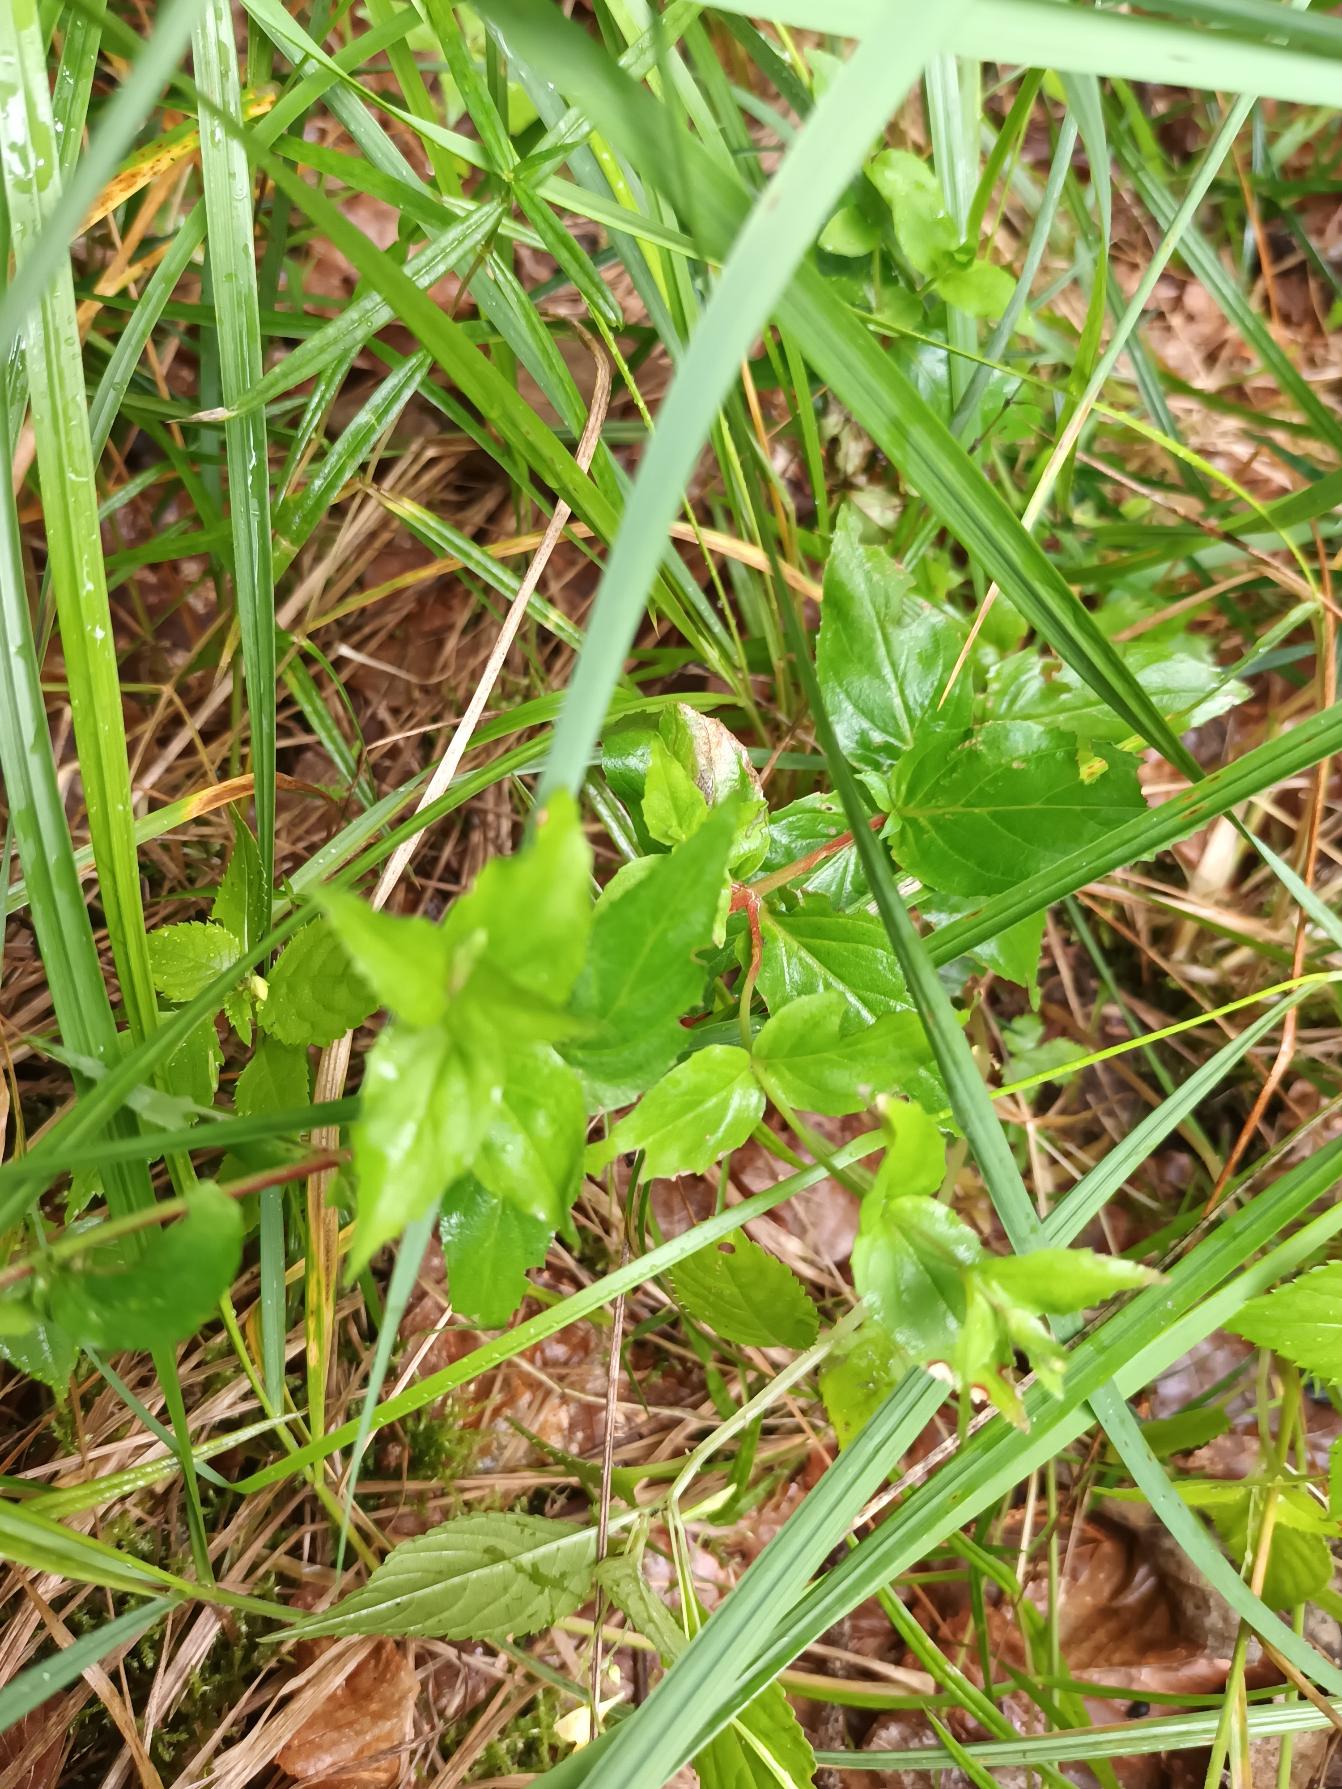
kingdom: Plantae
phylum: Tracheophyta
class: Magnoliopsida
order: Myrtales
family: Onagraceae
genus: Epilobium
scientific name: Epilobium montanum
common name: Glat dueurt
